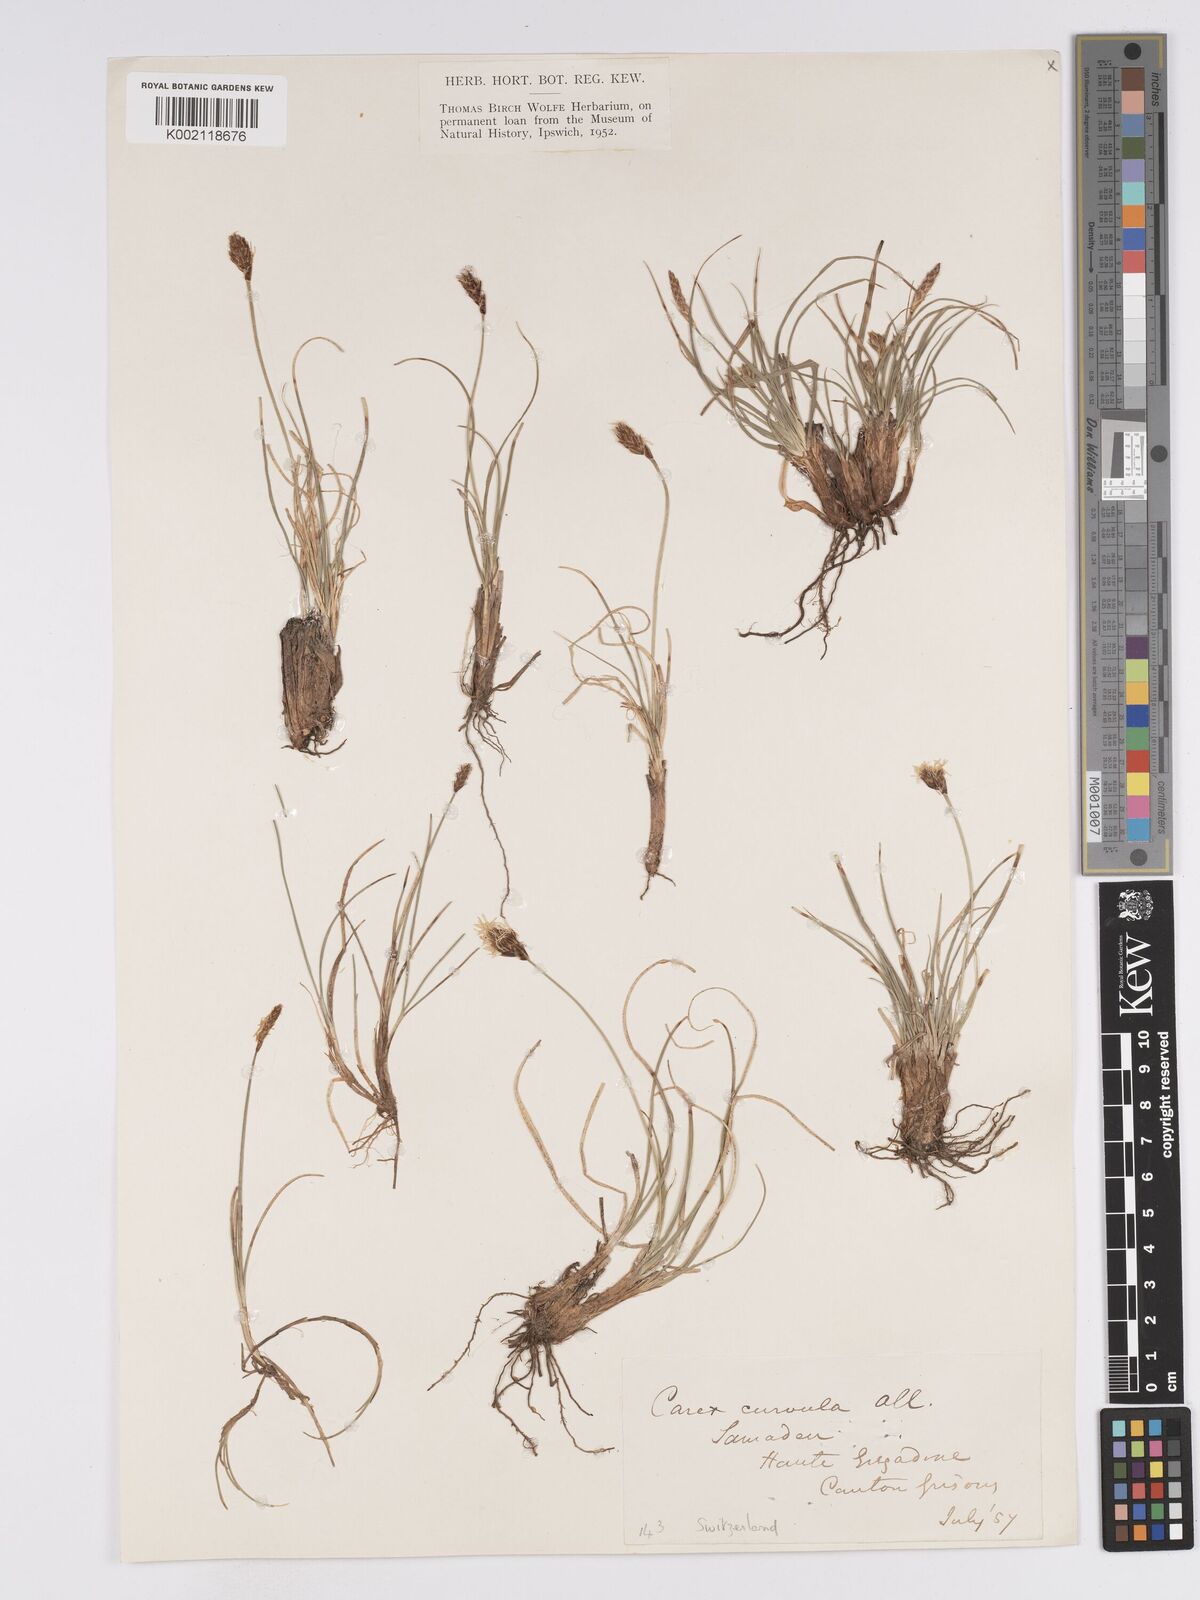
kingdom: Plantae
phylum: Tracheophyta
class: Liliopsida
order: Poales
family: Cyperaceae
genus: Carex
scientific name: Carex curvula
